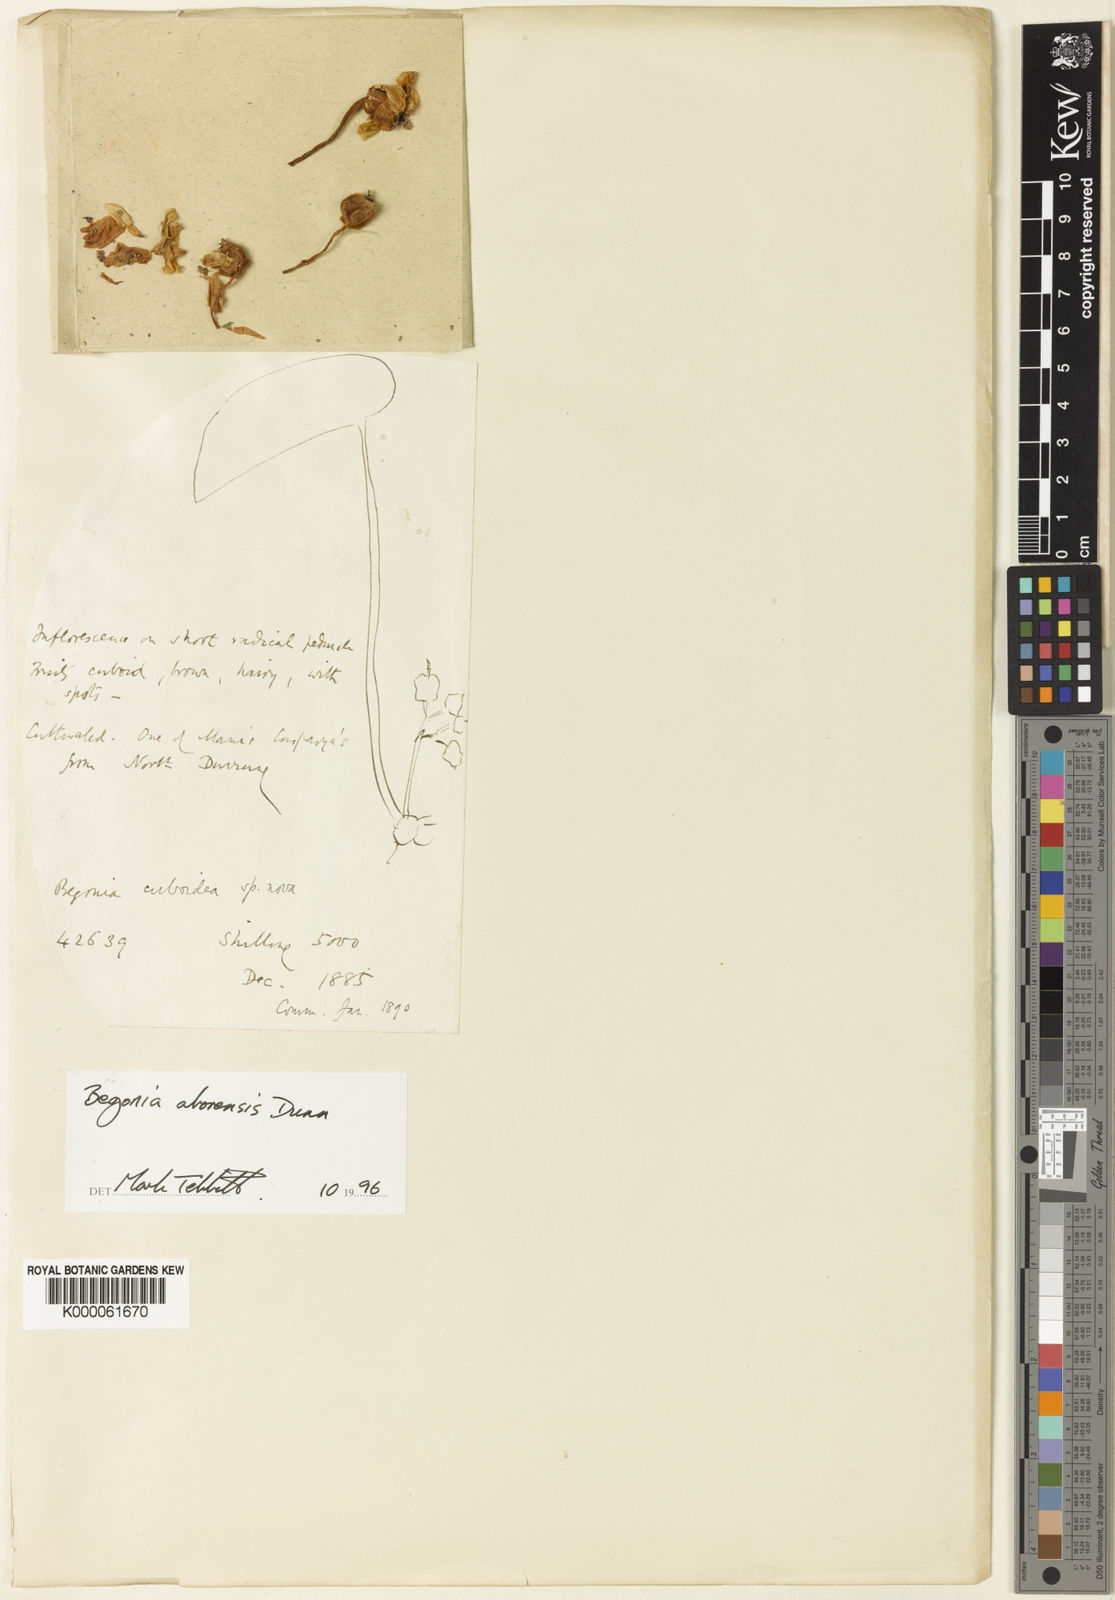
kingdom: Plantae
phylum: Tracheophyta
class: Magnoliopsida
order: Cucurbitales
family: Begoniaceae
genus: Begonia
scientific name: Begonia silletensis
